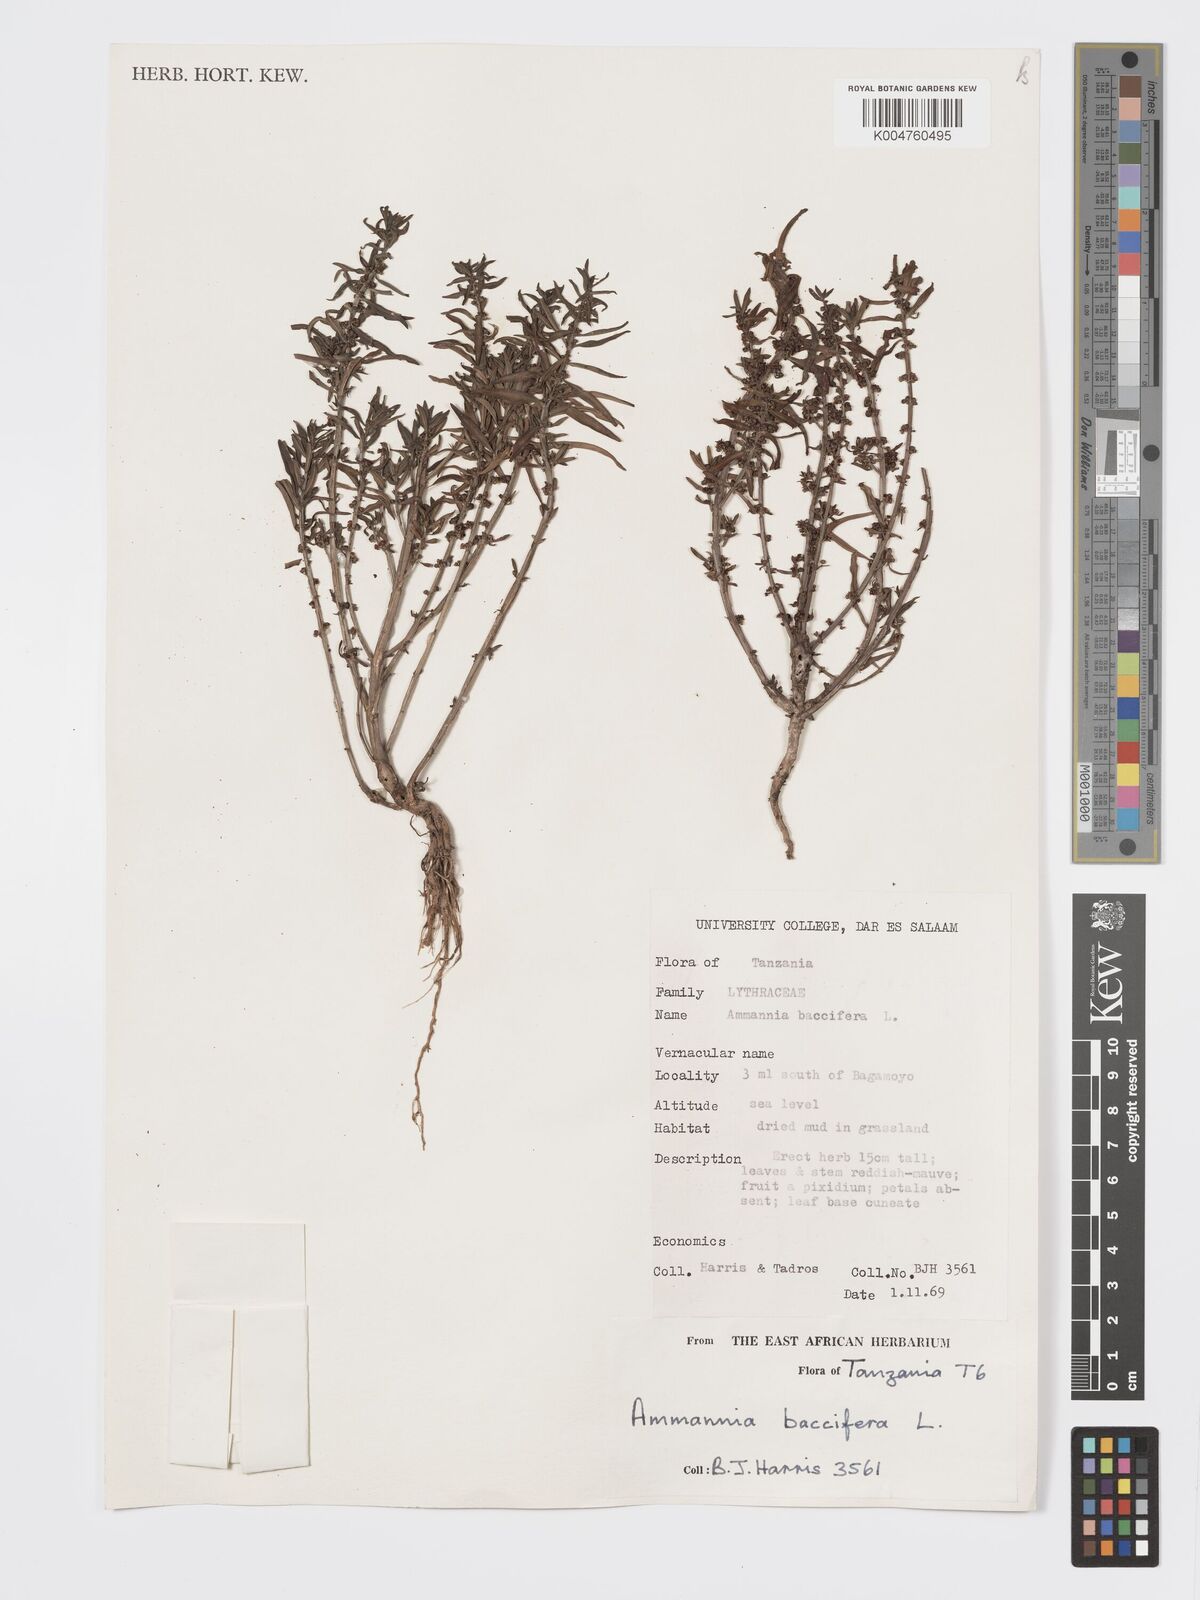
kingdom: Plantae
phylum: Tracheophyta
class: Magnoliopsida
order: Myrtales
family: Lythraceae
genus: Ammannia
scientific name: Ammannia
